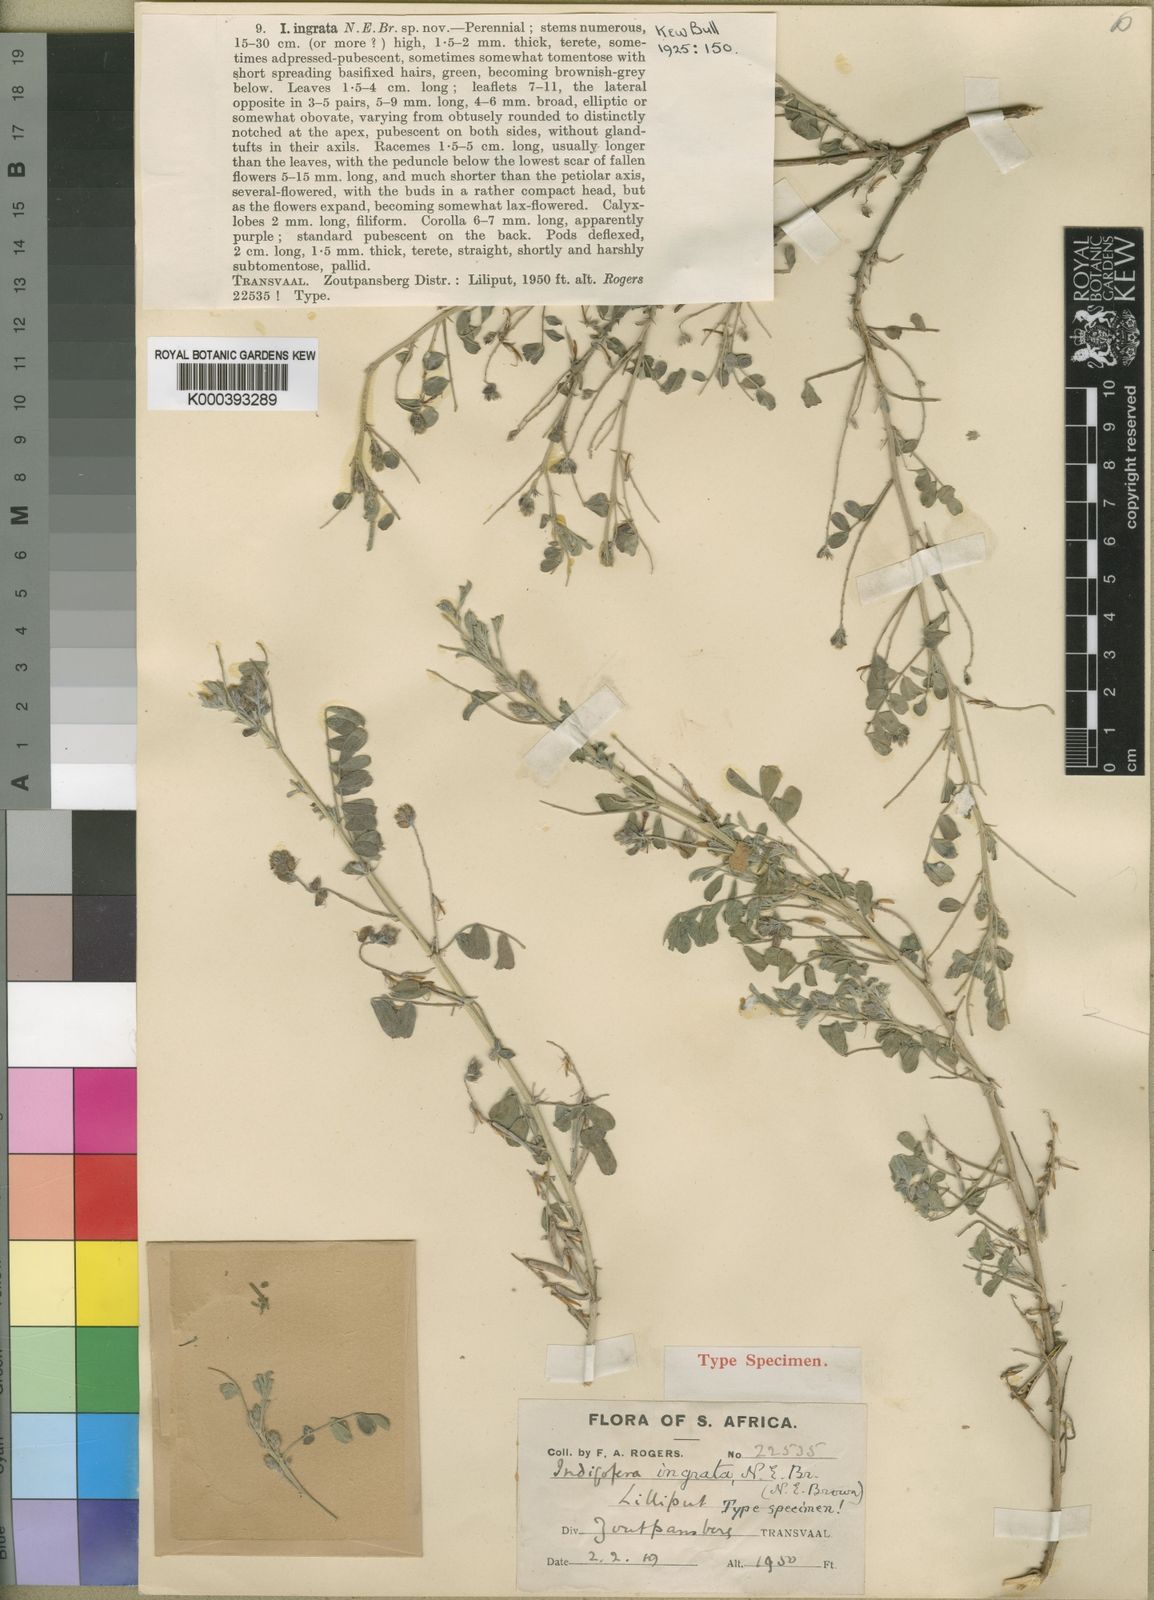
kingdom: Plantae
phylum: Tracheophyta
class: Magnoliopsida
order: Fabales
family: Fabaceae
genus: Indigofera
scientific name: Indigofera ingrata
